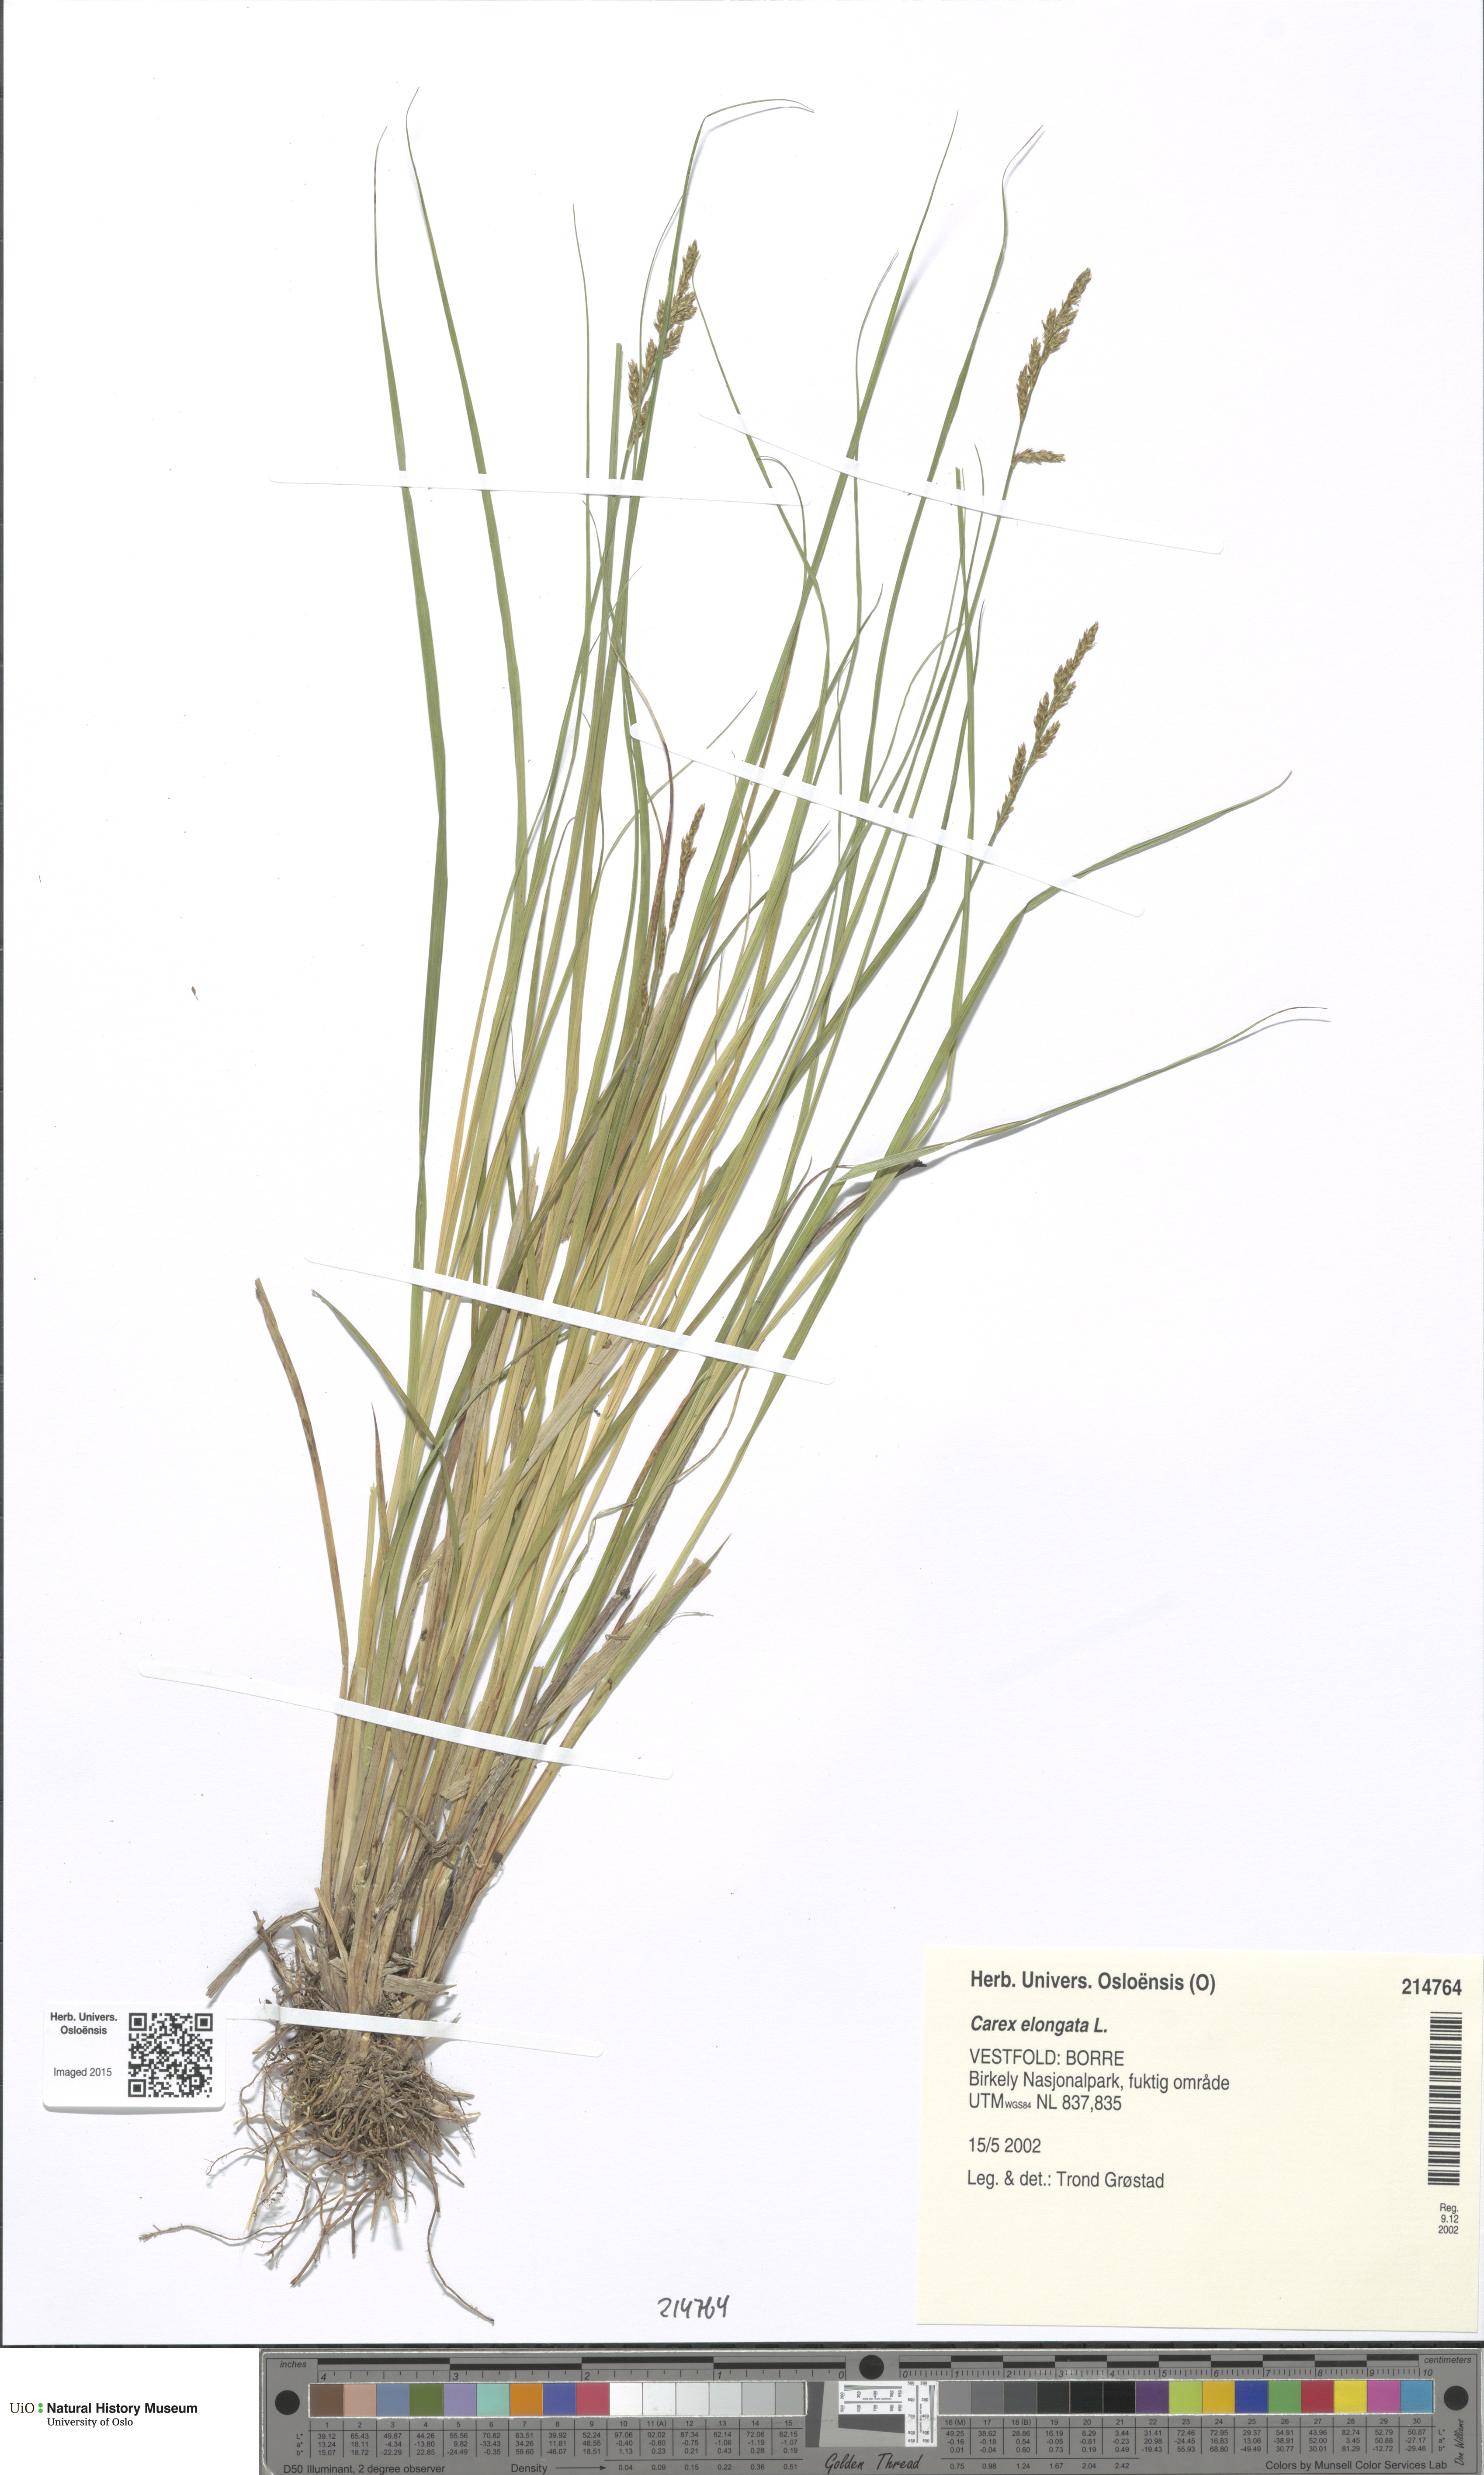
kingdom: Plantae
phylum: Tracheophyta
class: Liliopsida
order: Poales
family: Cyperaceae
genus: Carex
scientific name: Carex elongata
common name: Elongated sedge
